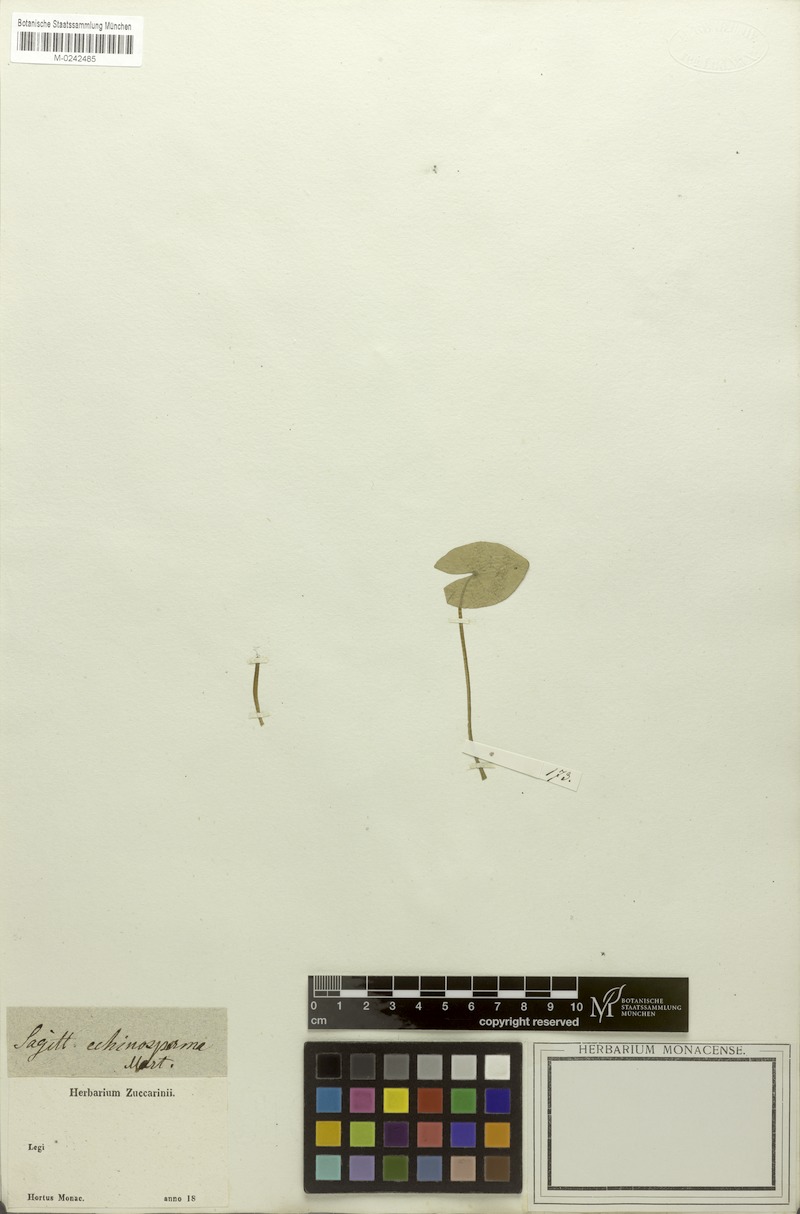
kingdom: Plantae
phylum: Tracheophyta
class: Liliopsida
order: Alismatales
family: Alismataceae
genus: Sagittaria
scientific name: Sagittaria guayanensis
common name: Guyanese arrowhead
